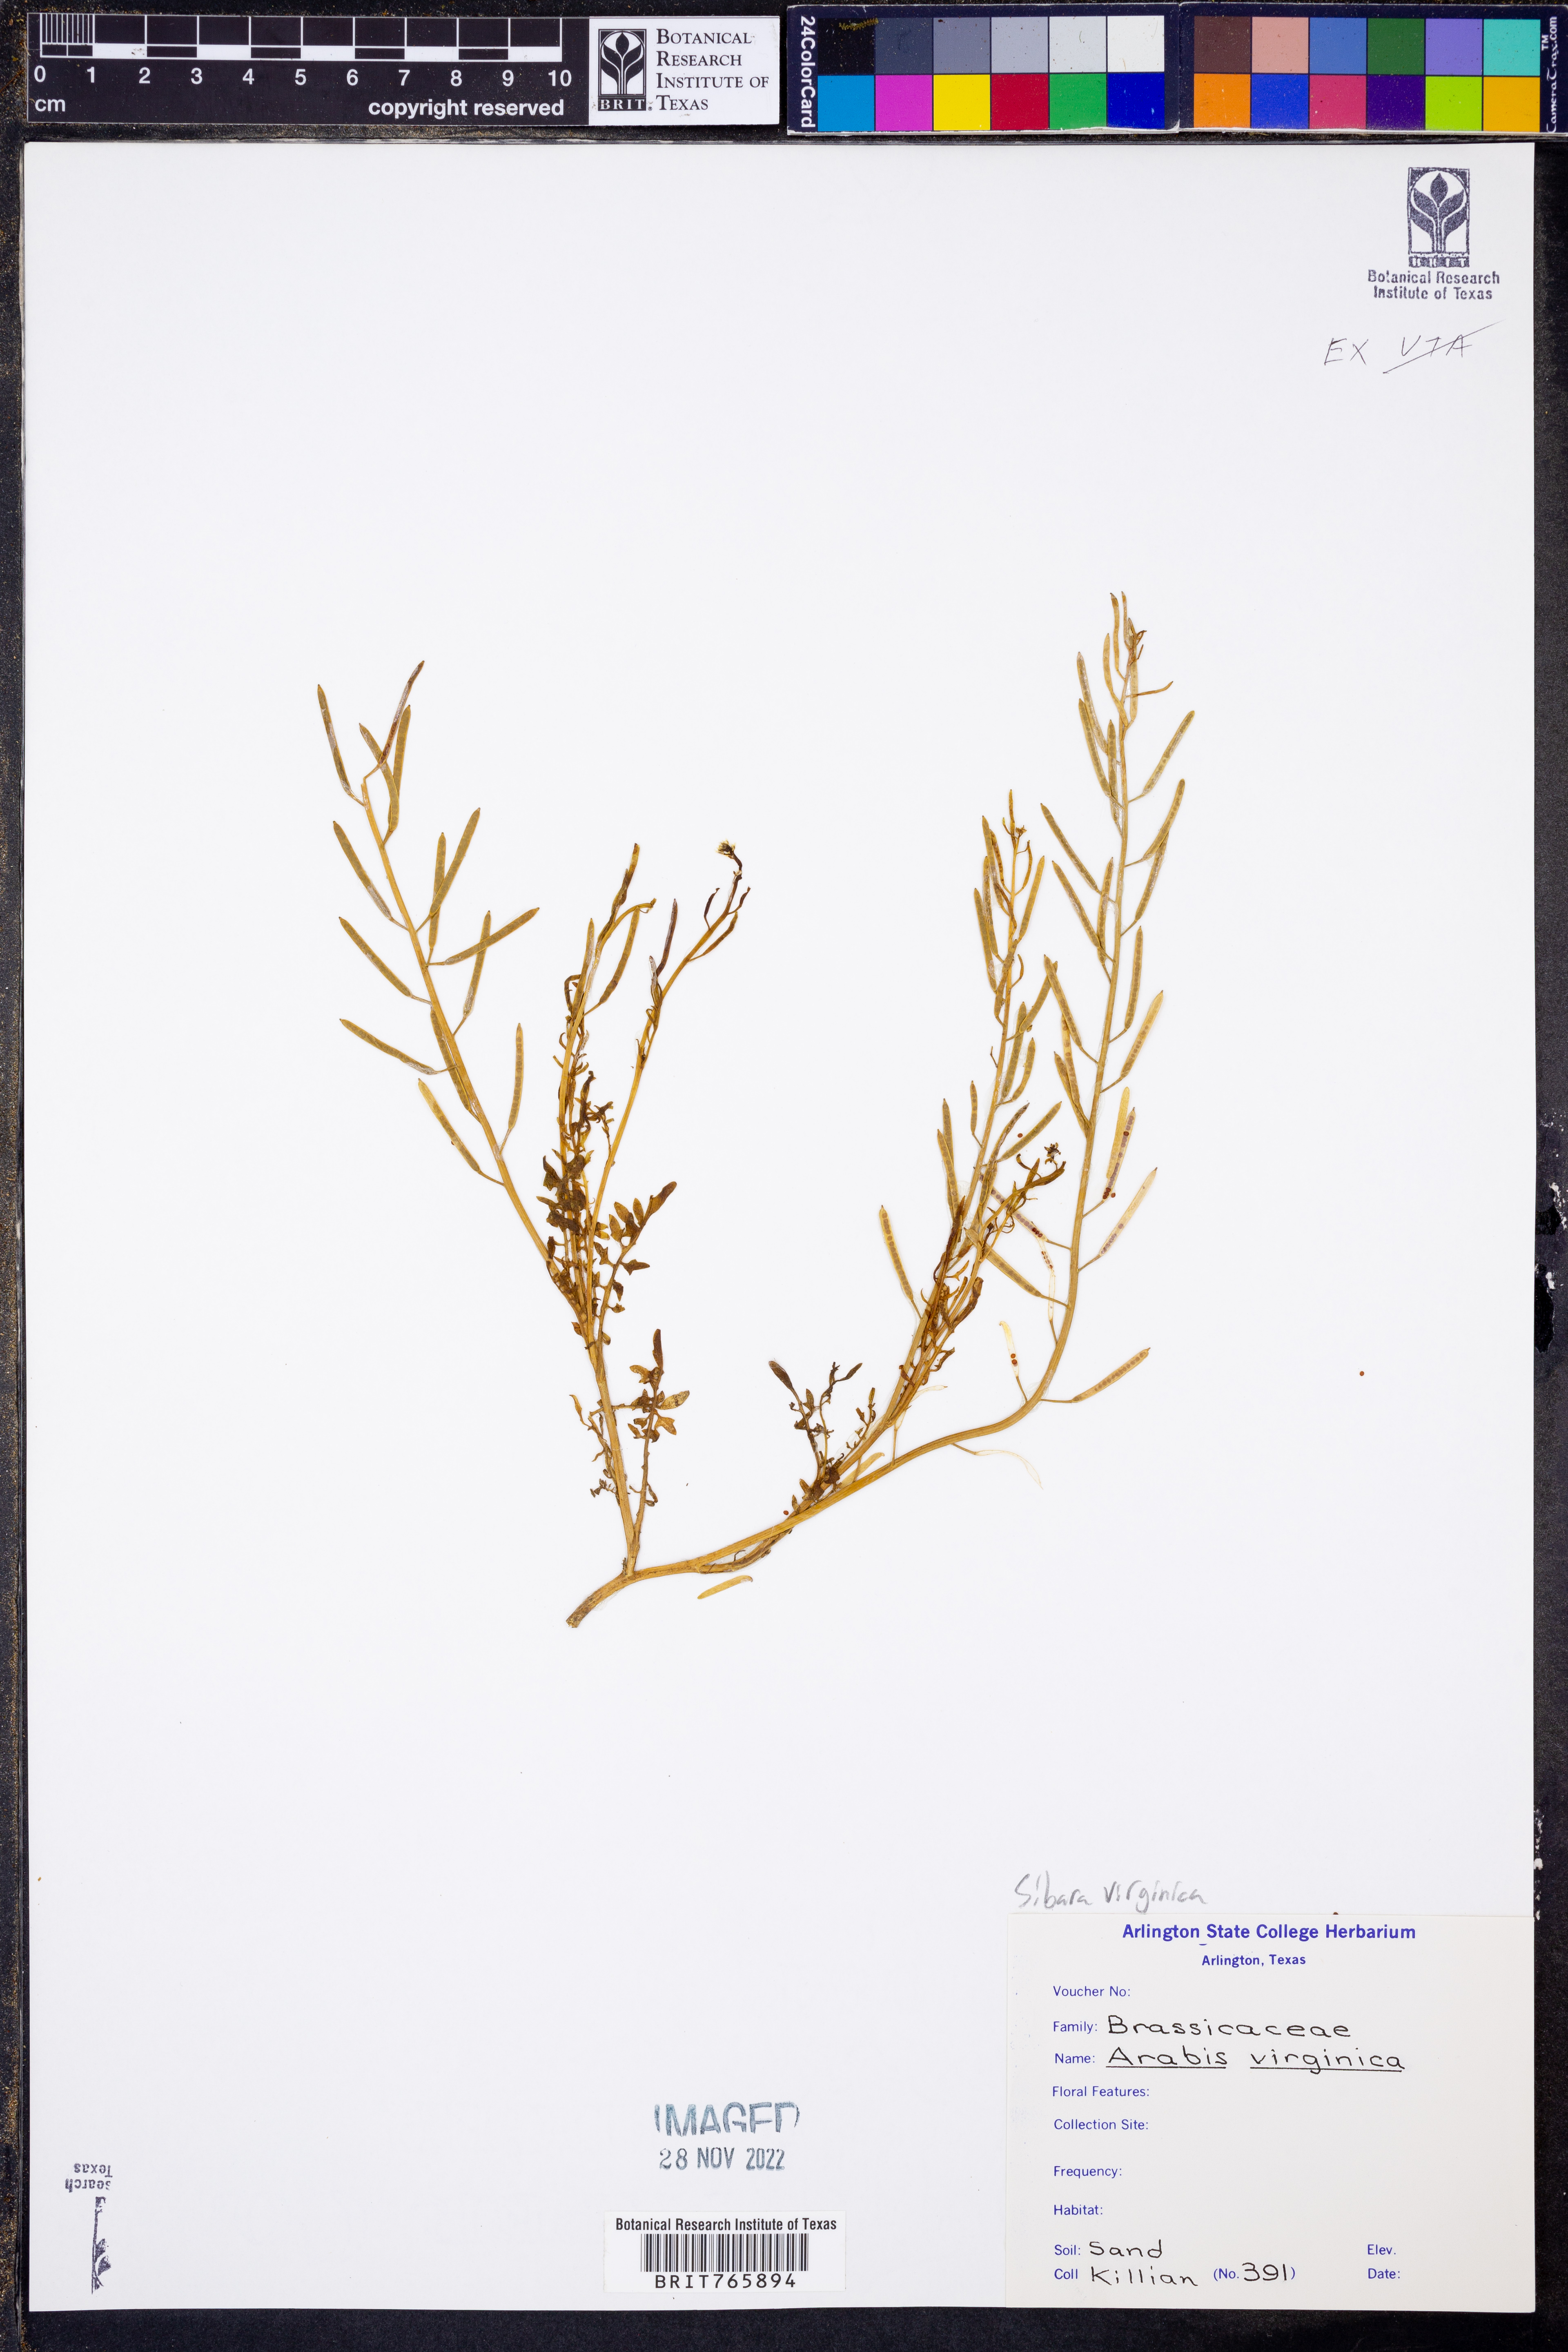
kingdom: Plantae
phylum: Tracheophyta
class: Magnoliopsida
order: Brassicales
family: Brassicaceae
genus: Planodes
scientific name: Planodes virginicum
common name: Virginia cress
